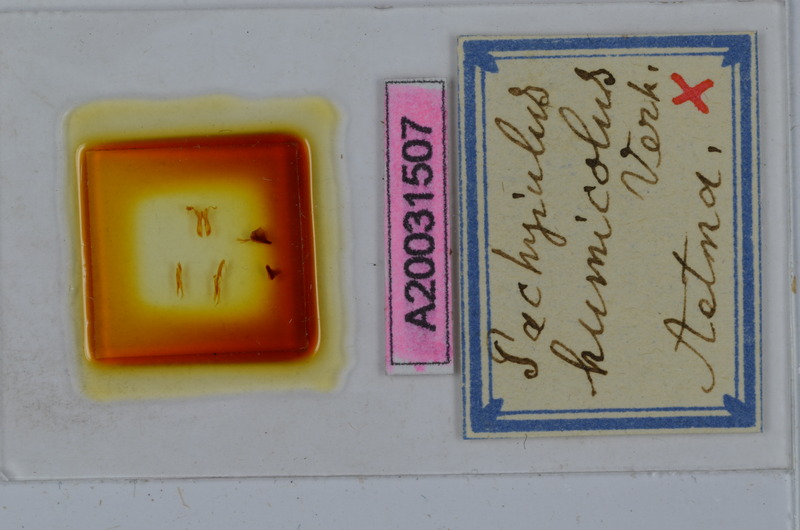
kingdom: Animalia
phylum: Arthropoda
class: Diplopoda
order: Julida
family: Julidae
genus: Pachyiulus
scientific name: Pachyiulus humicola
